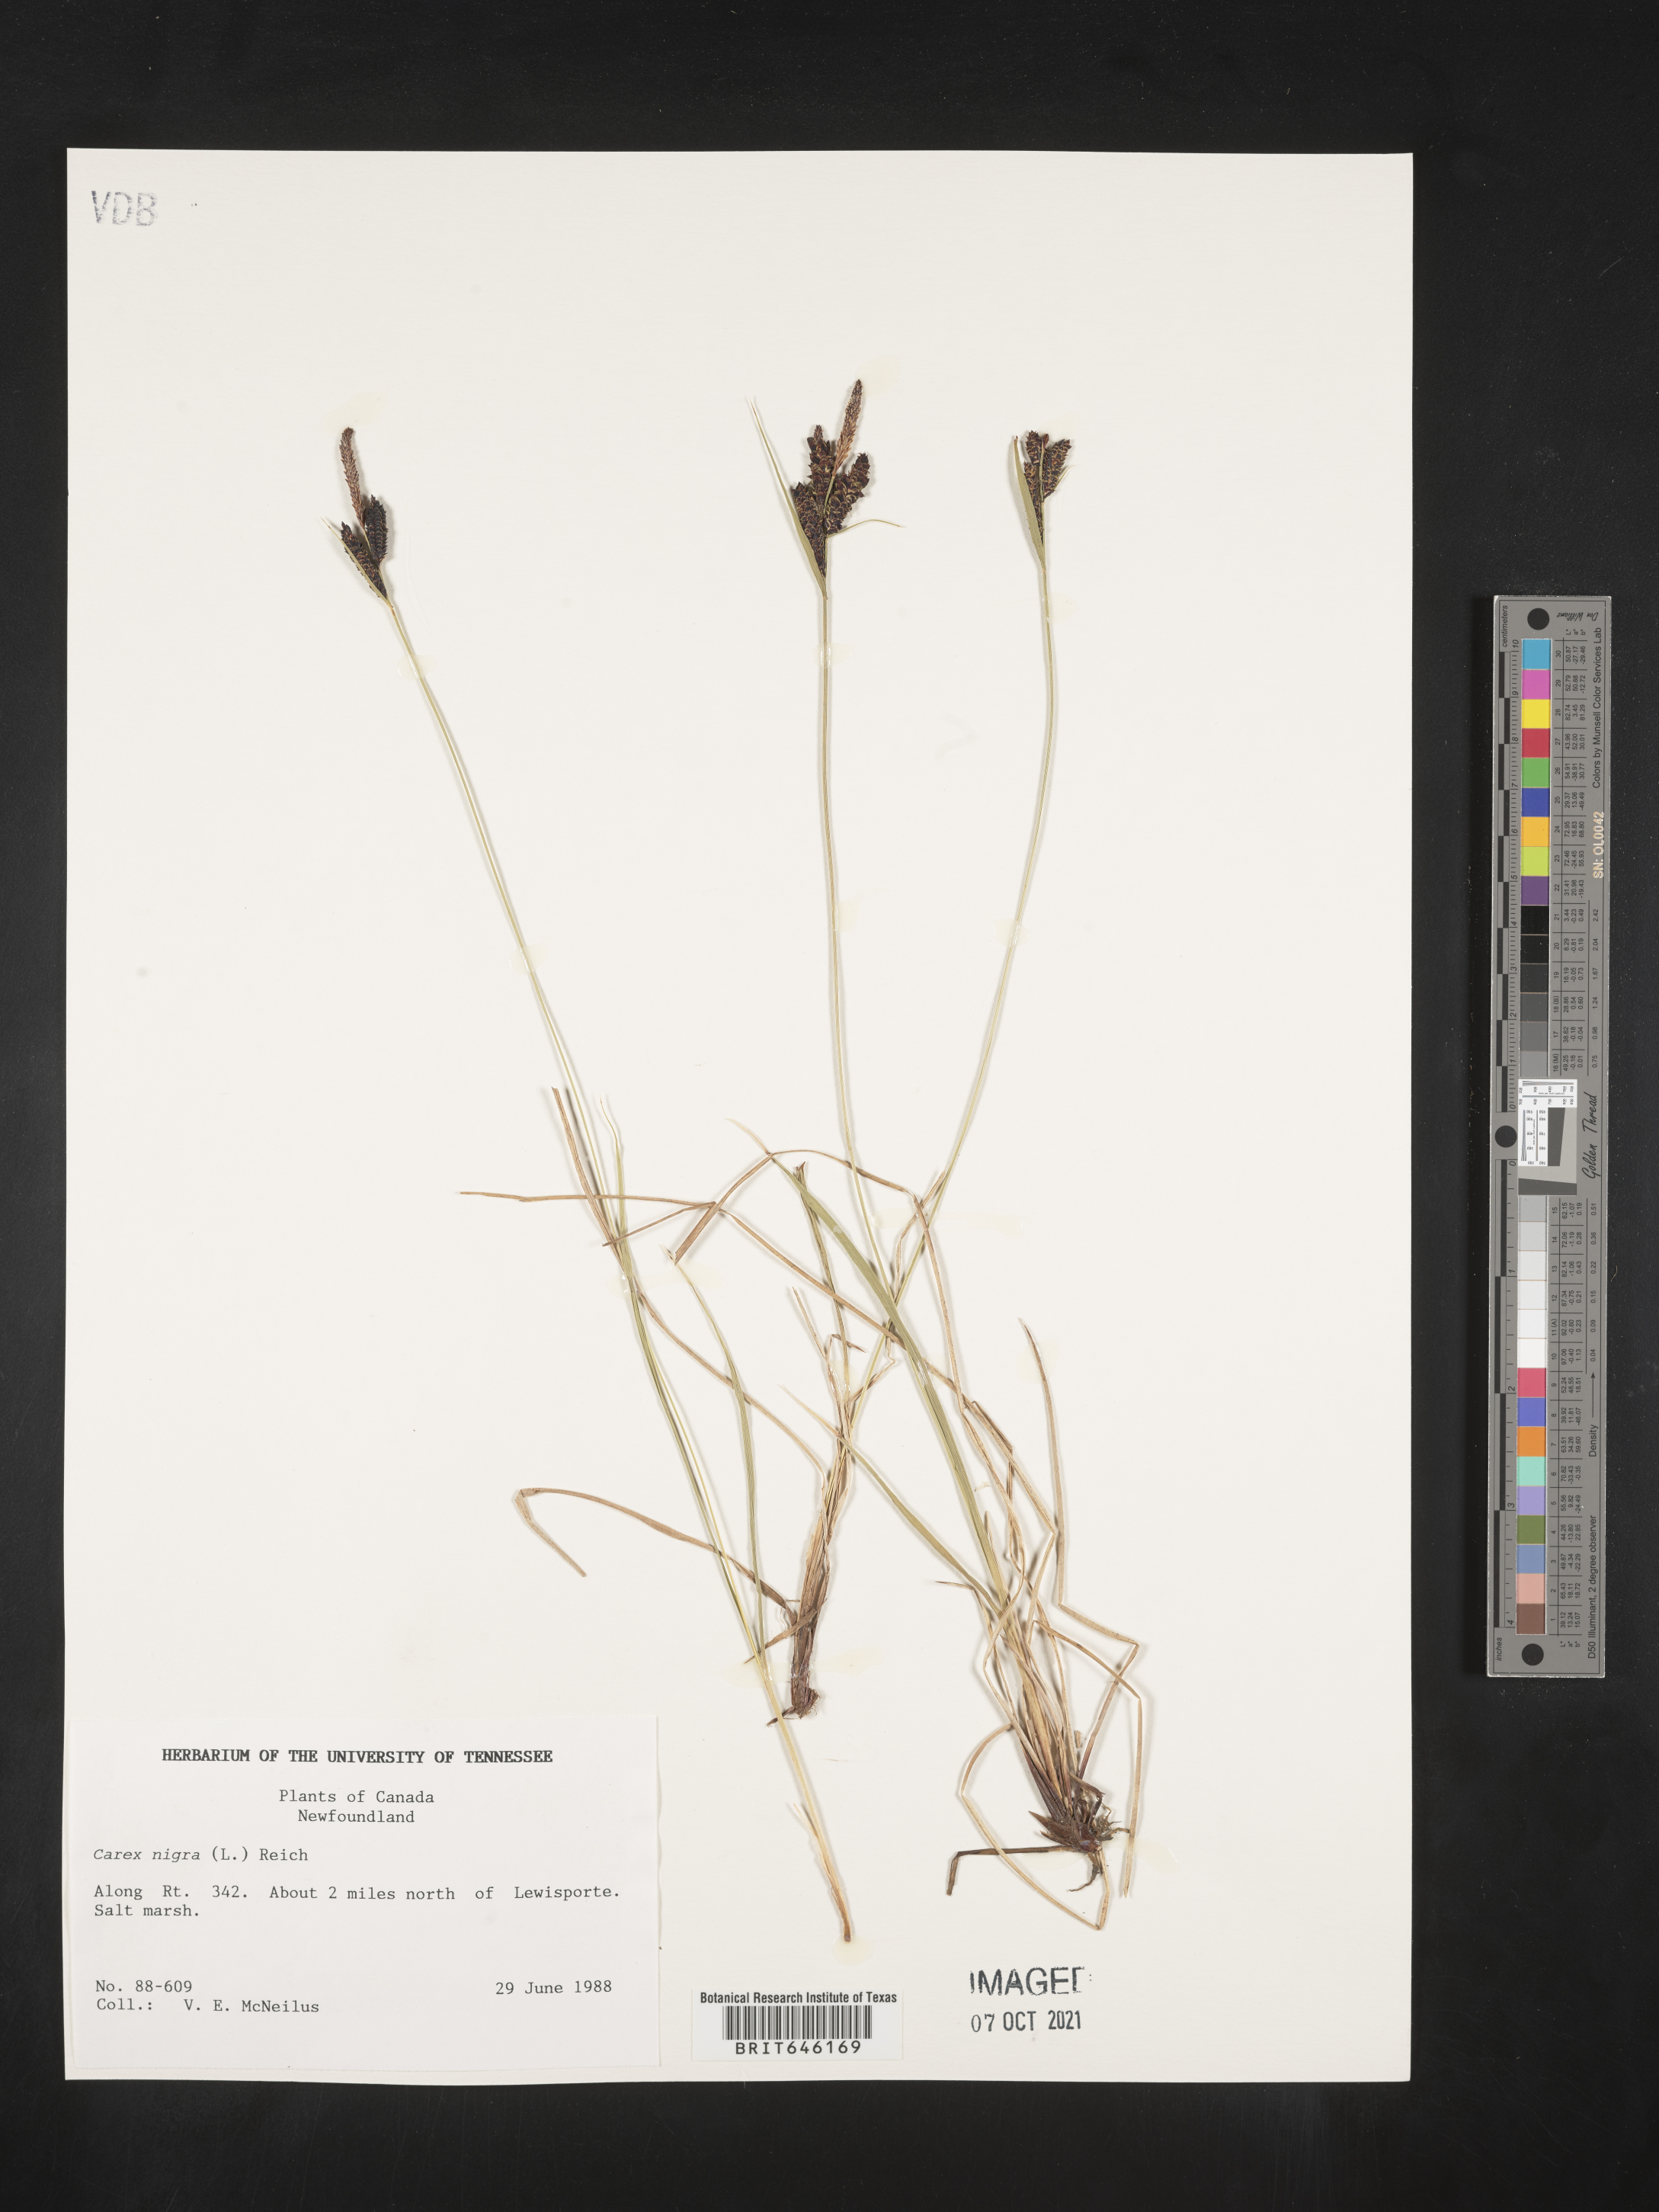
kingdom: Plantae
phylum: Tracheophyta
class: Liliopsida
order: Poales
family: Cyperaceae
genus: Carex
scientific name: Carex nigra
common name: Common sedge
